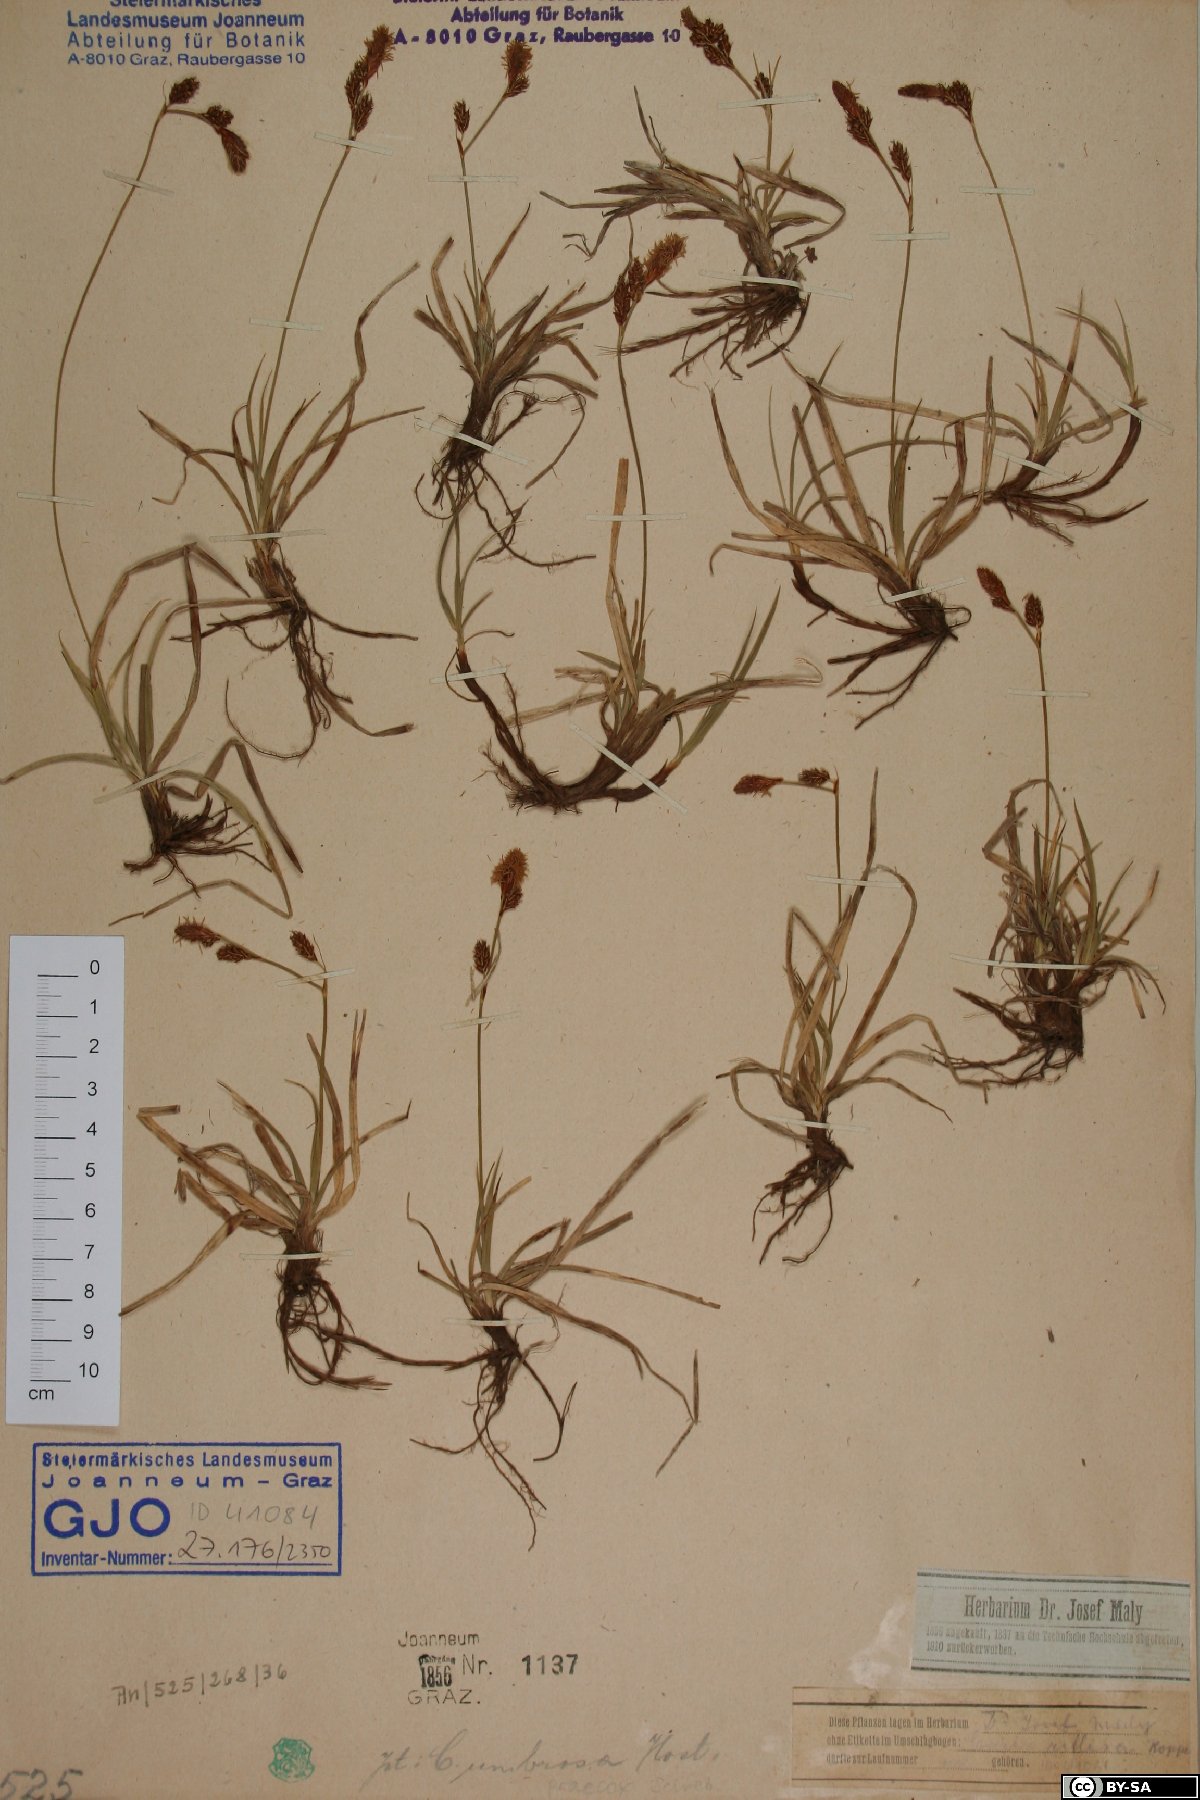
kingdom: Plantae
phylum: Tracheophyta
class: Liliopsida
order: Poales
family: Cyperaceae
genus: Carex
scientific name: Carex caryophyllea
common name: Spring sedge
